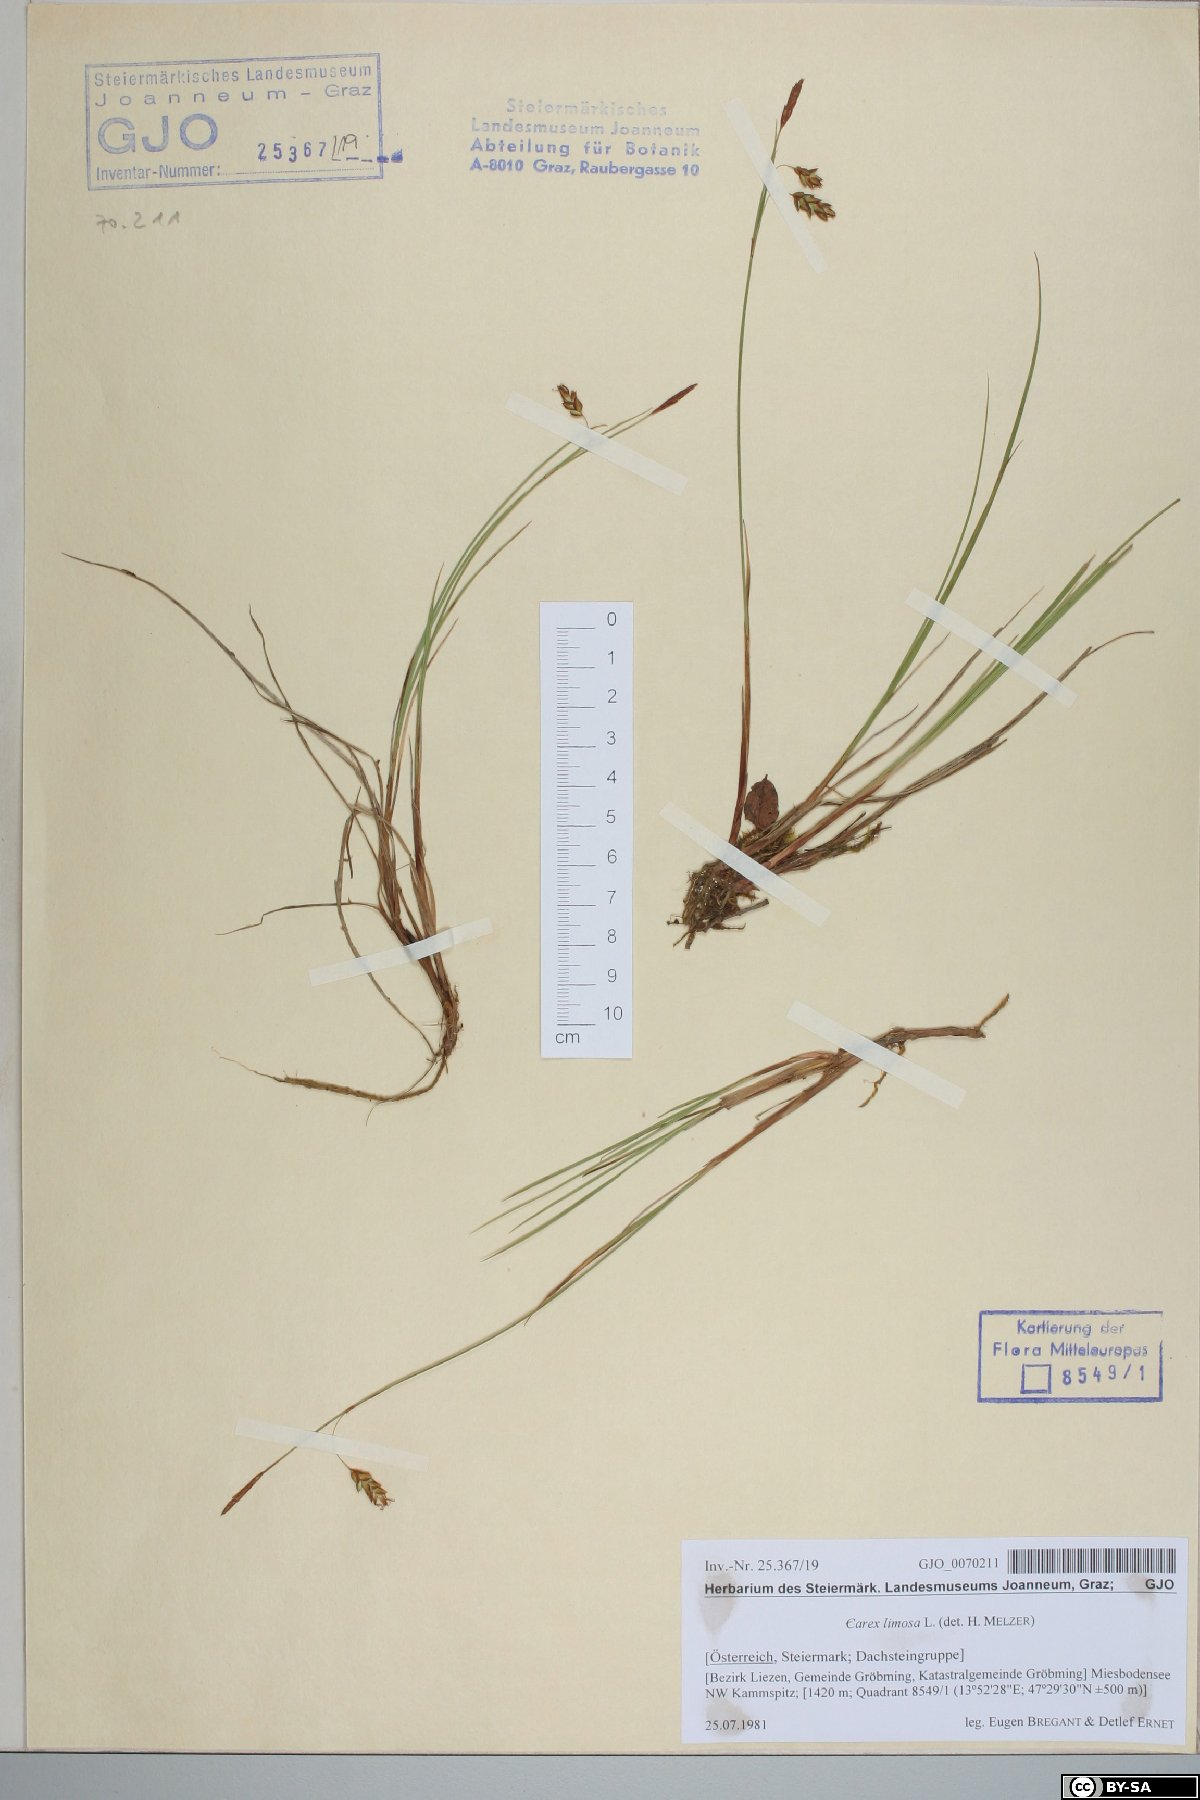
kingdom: Plantae
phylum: Tracheophyta
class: Liliopsida
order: Poales
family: Cyperaceae
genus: Carex
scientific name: Carex limosa
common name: Bog sedge
